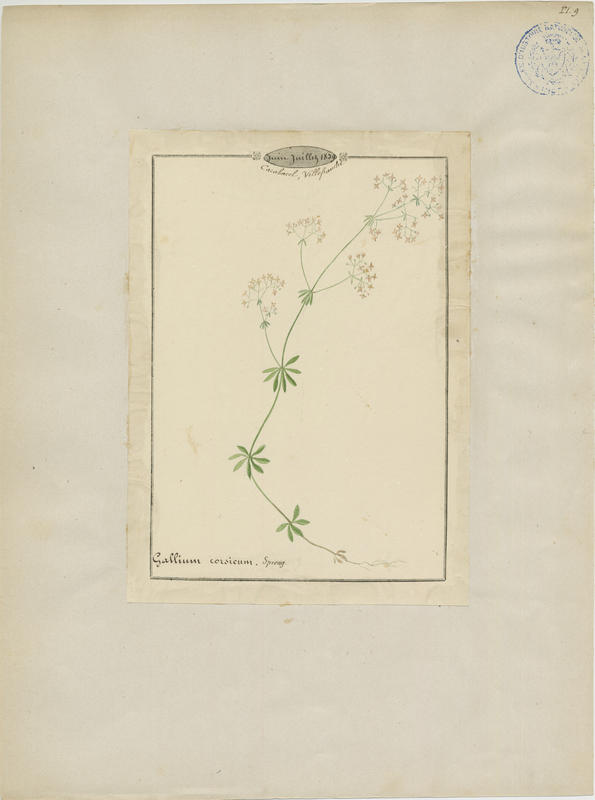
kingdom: Plantae
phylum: Tracheophyta
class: Magnoliopsida
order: Gentianales
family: Rubiaceae
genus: Galium
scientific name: Galium corsicum
